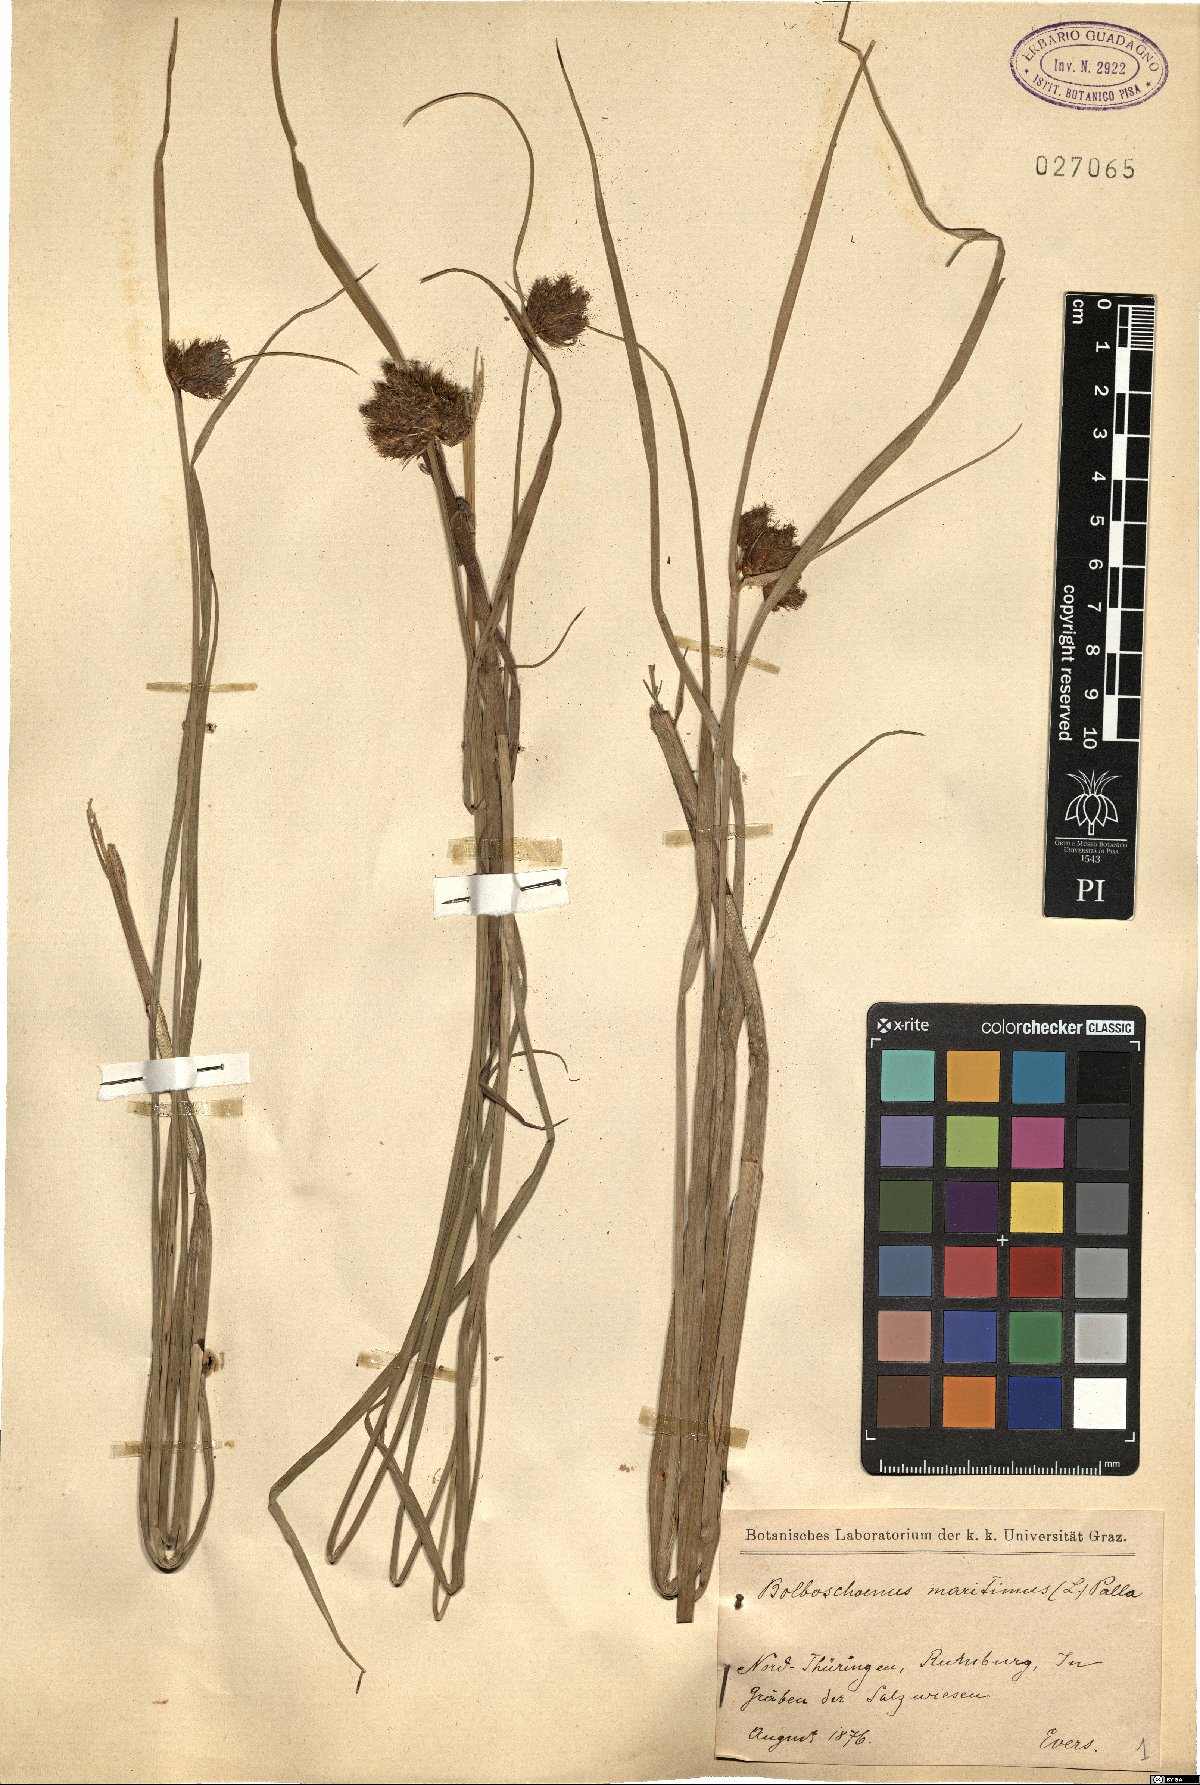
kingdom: Plantae
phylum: Tracheophyta
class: Liliopsida
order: Poales
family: Cyperaceae
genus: Bolboschoenus
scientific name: Bolboschoenus maritimus
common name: Sea club-rush
